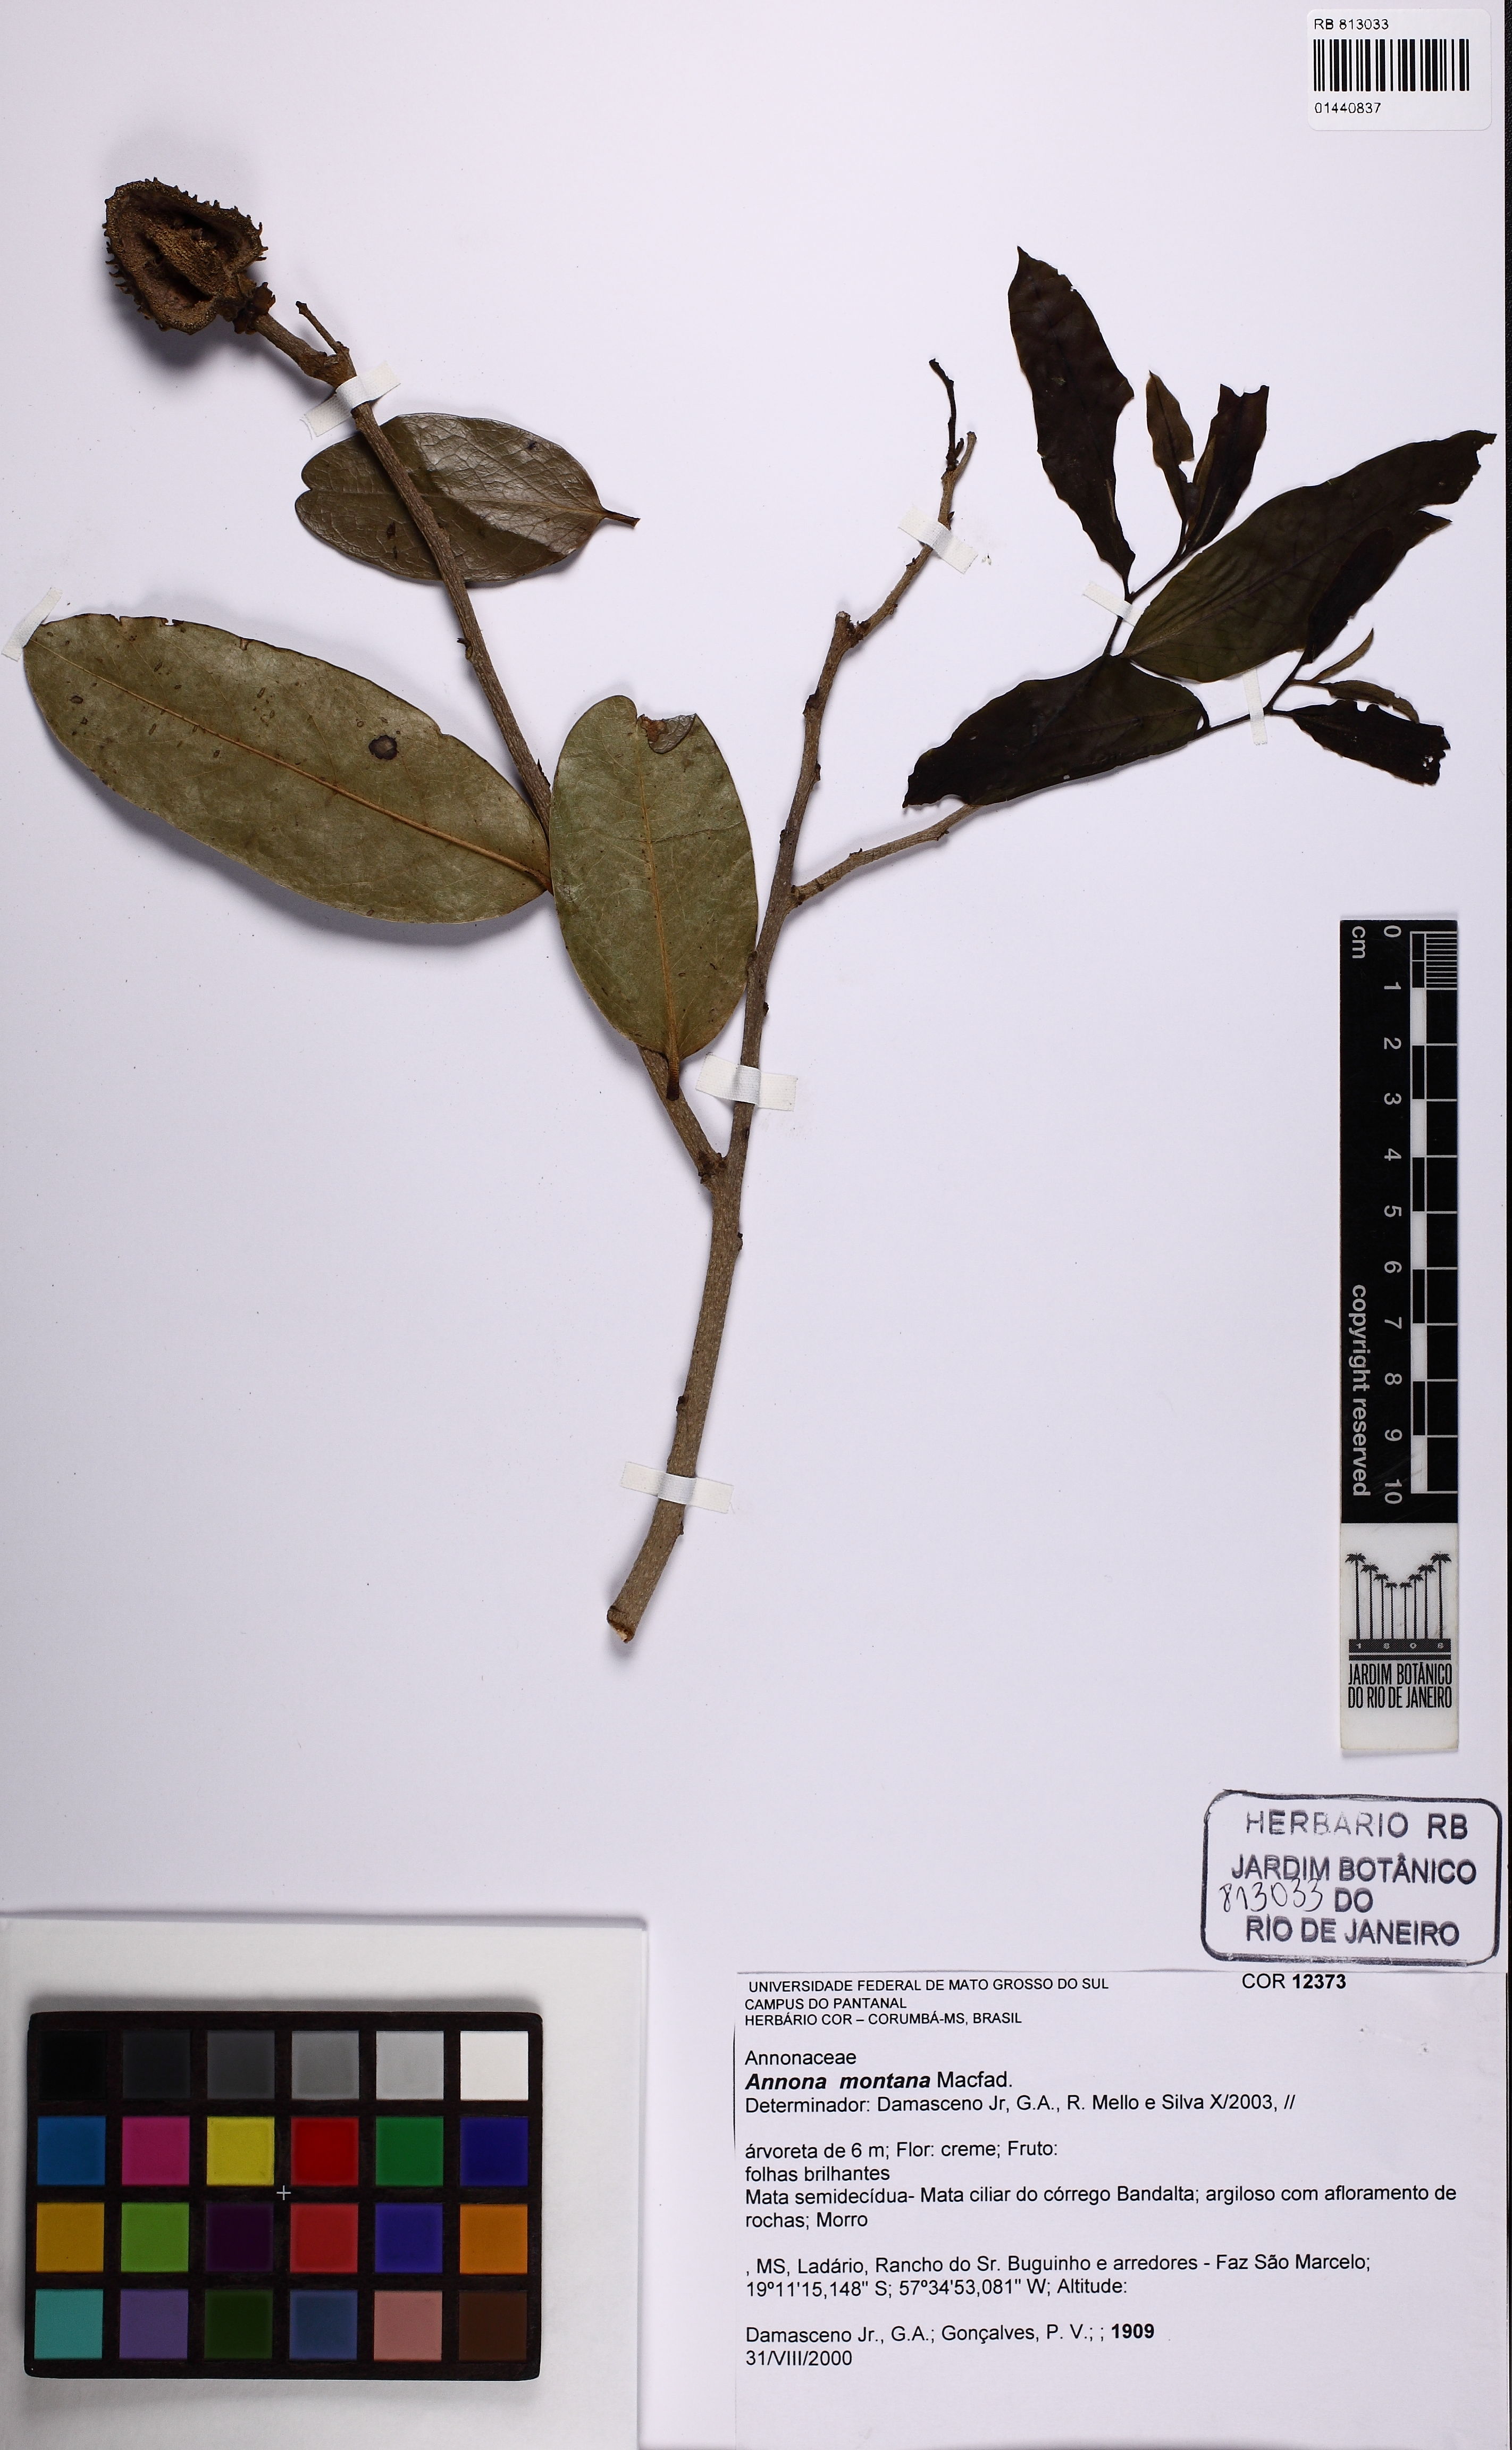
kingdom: Plantae
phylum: Tracheophyta
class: Magnoliopsida
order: Magnoliales
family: Annonaceae
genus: Annona
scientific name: Annona montana
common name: Mountain soursop
